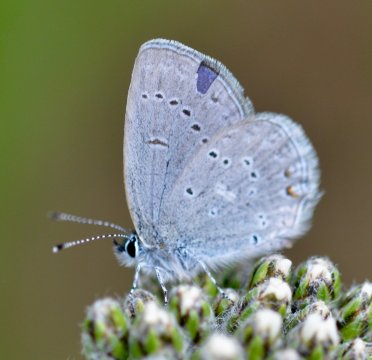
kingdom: Animalia
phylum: Arthropoda
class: Insecta
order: Lepidoptera
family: Lycaenidae
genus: Elkalyce
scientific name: Elkalyce amyntula
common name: Western Tailed-Blue
